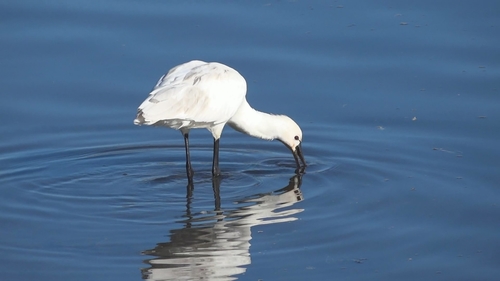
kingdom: Animalia
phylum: Chordata
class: Aves
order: Pelecaniformes
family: Threskiornithidae
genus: Platalea
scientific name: Platalea leucorodia
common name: Eurasian spoonbill
